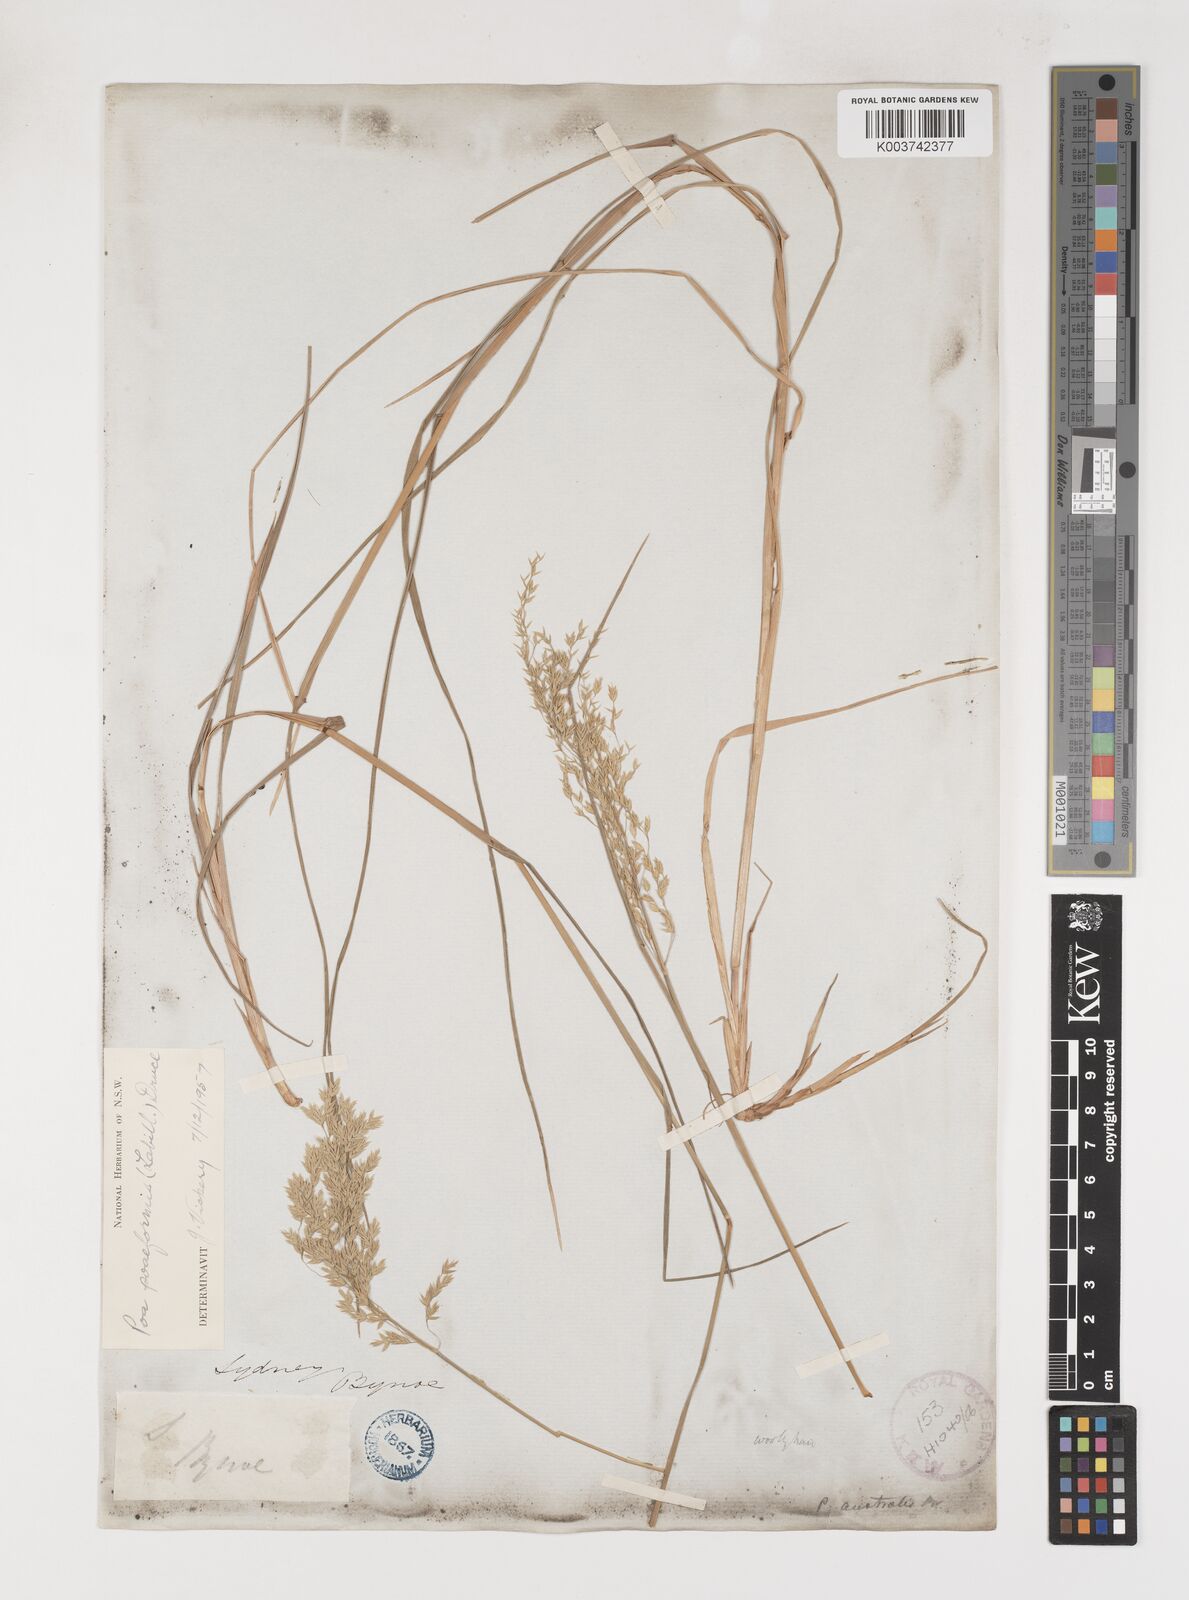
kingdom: Plantae
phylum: Tracheophyta
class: Liliopsida
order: Poales
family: Poaceae
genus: Poa
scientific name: Poa poiformis
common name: Tussock poa
